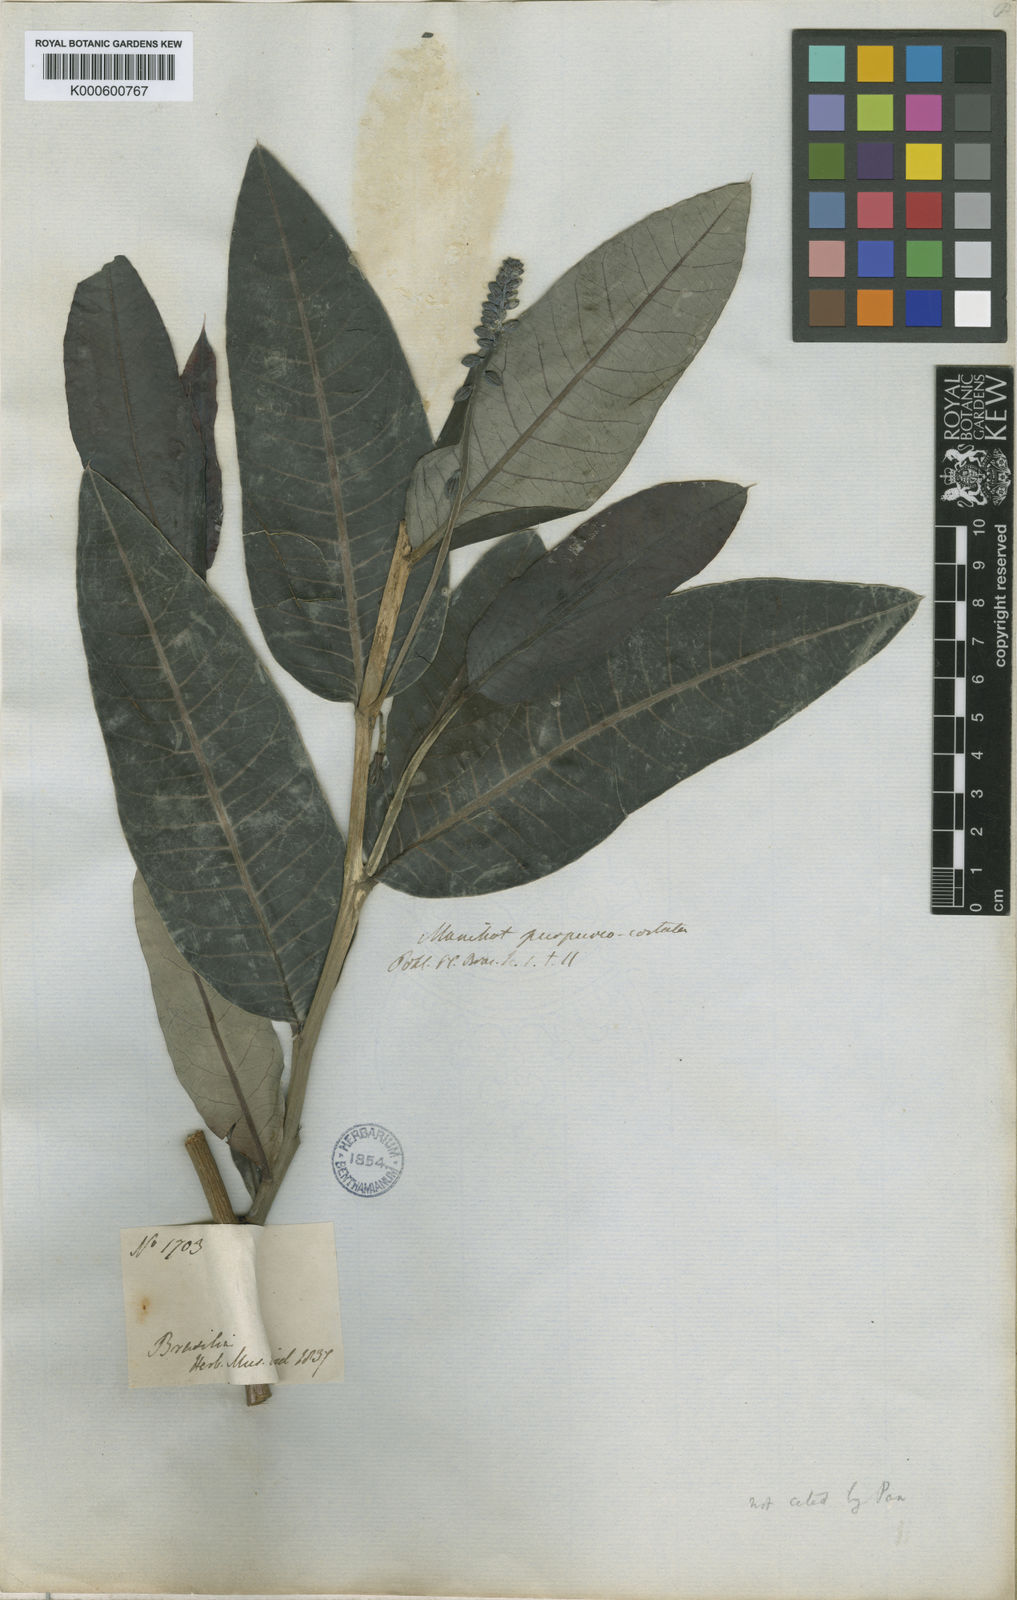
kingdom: Plantae
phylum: Tracheophyta
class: Magnoliopsida
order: Malpighiales
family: Euphorbiaceae
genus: Manihot
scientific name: Manihot purpureocostata
